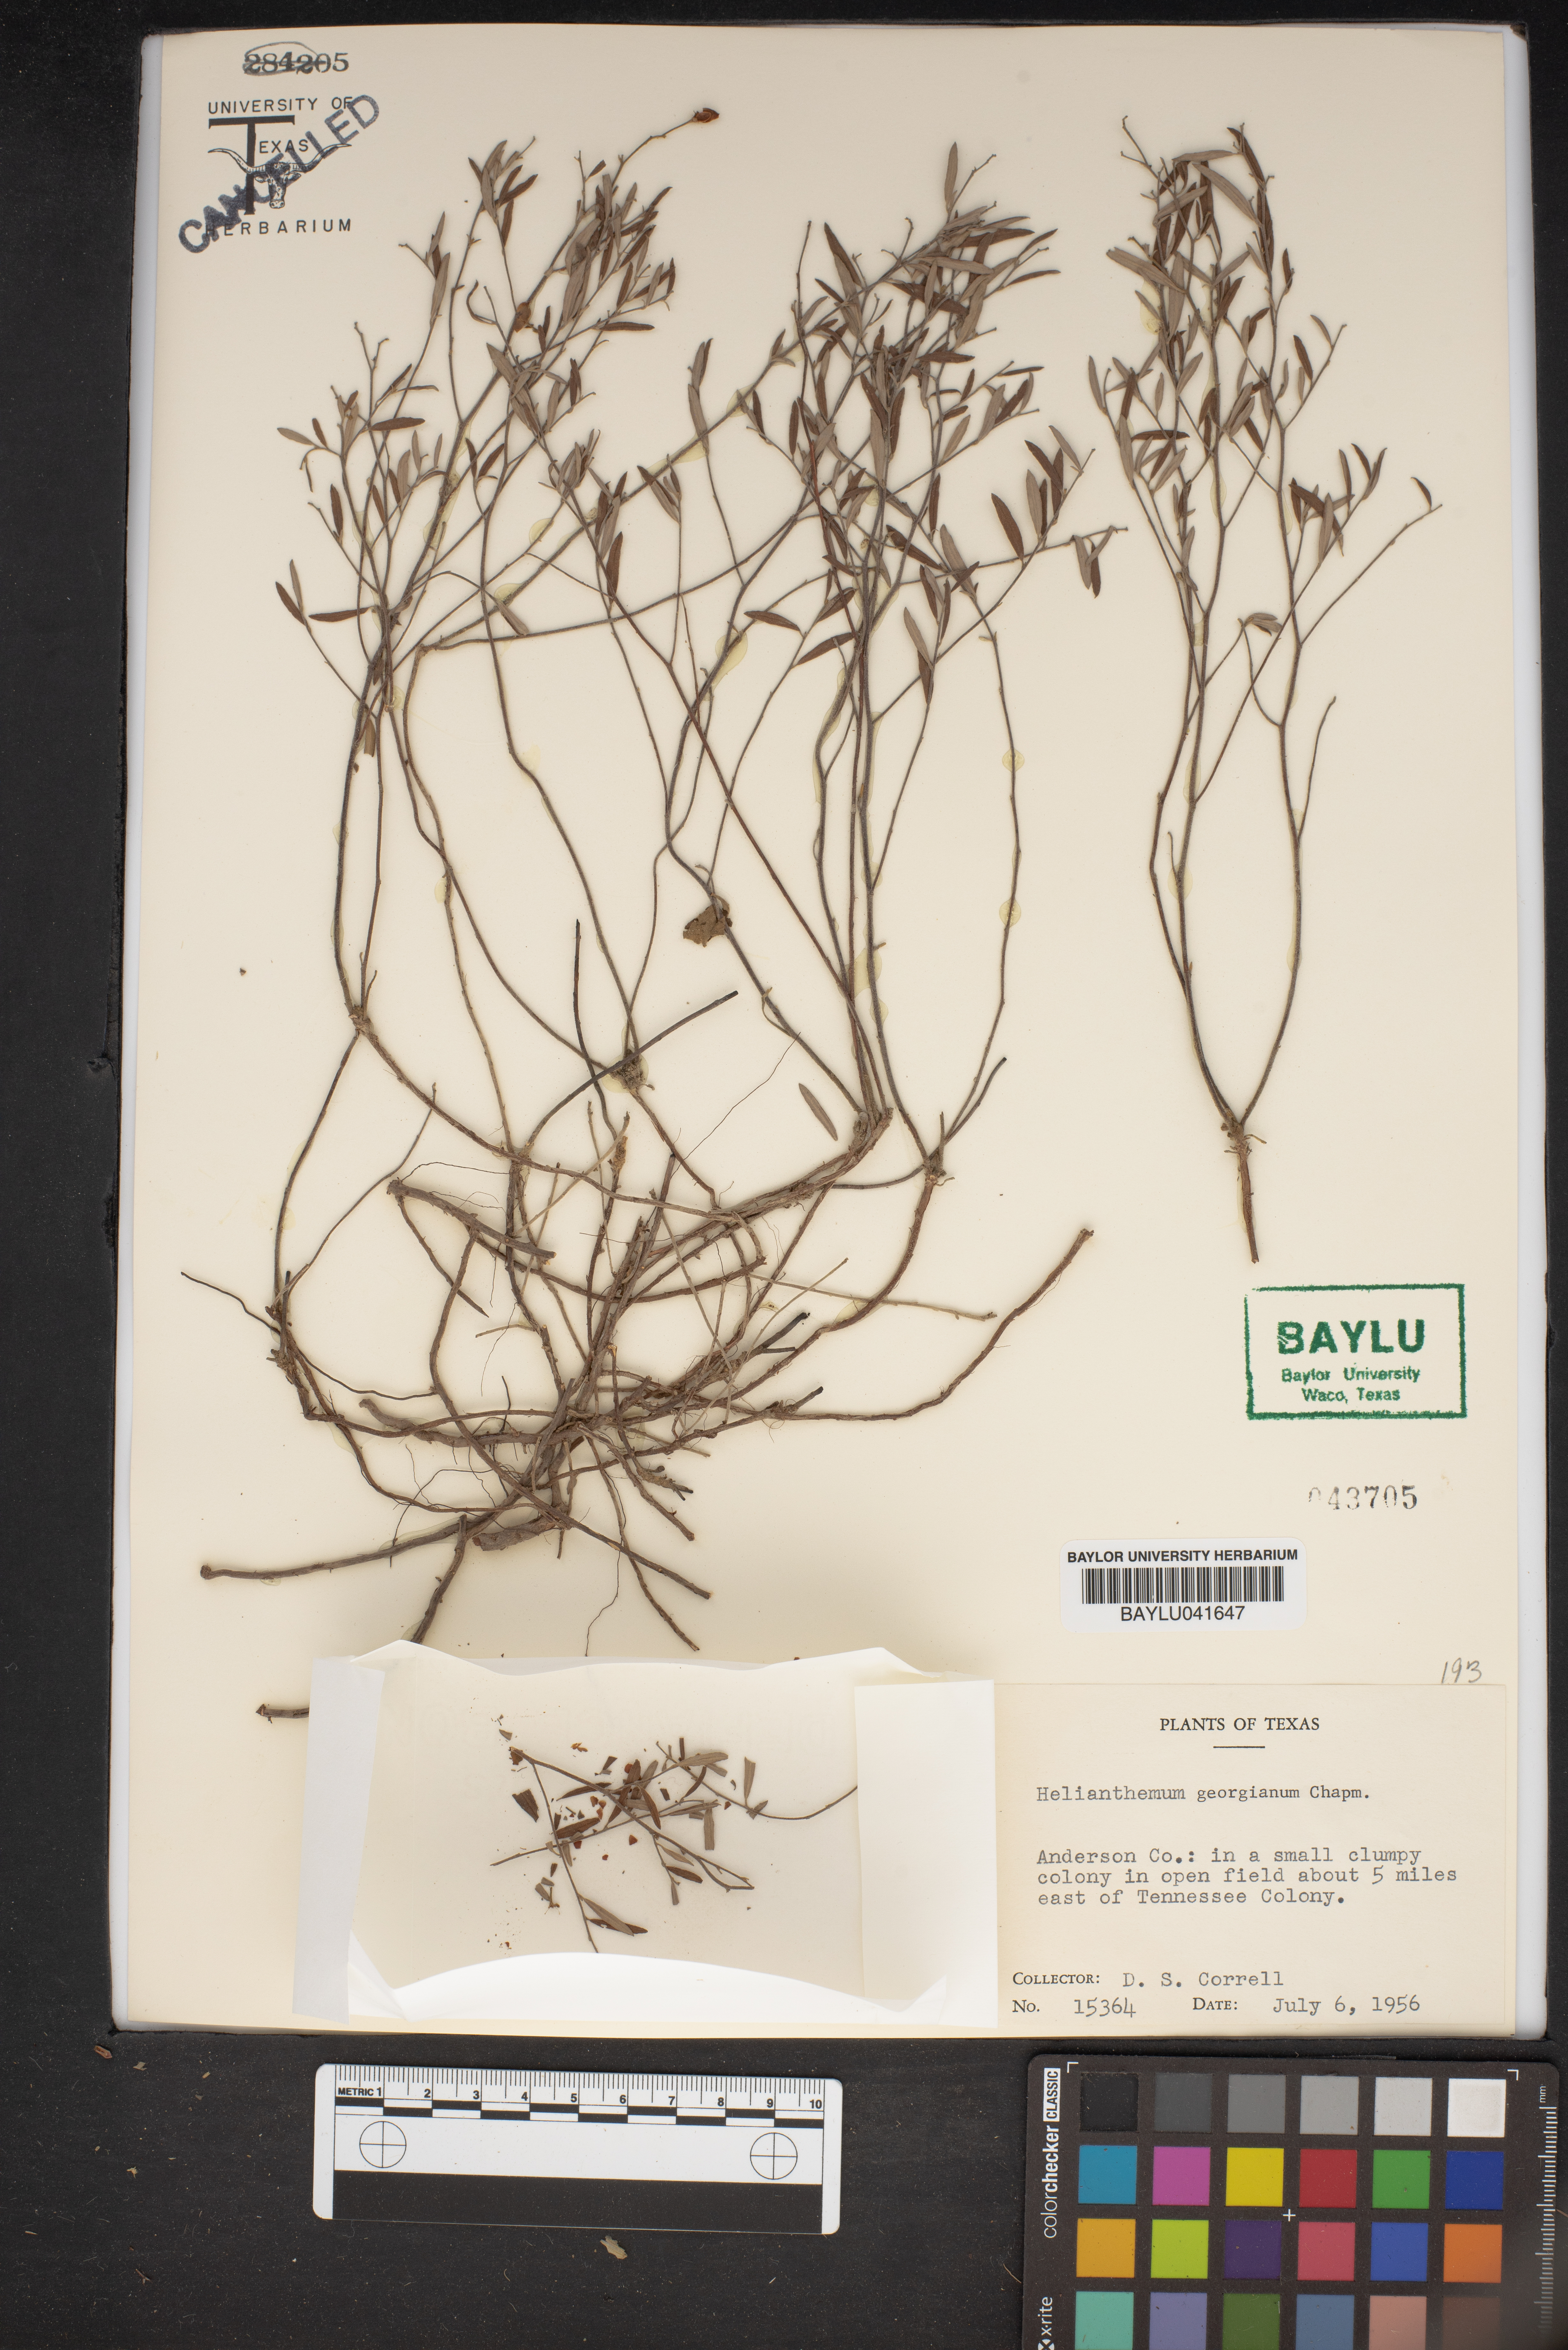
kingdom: Plantae
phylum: Tracheophyta
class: Magnoliopsida
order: Malvales
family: Cistaceae
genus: Crocanthemum
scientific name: Crocanthemum georgianum
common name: Georgia frostweed
